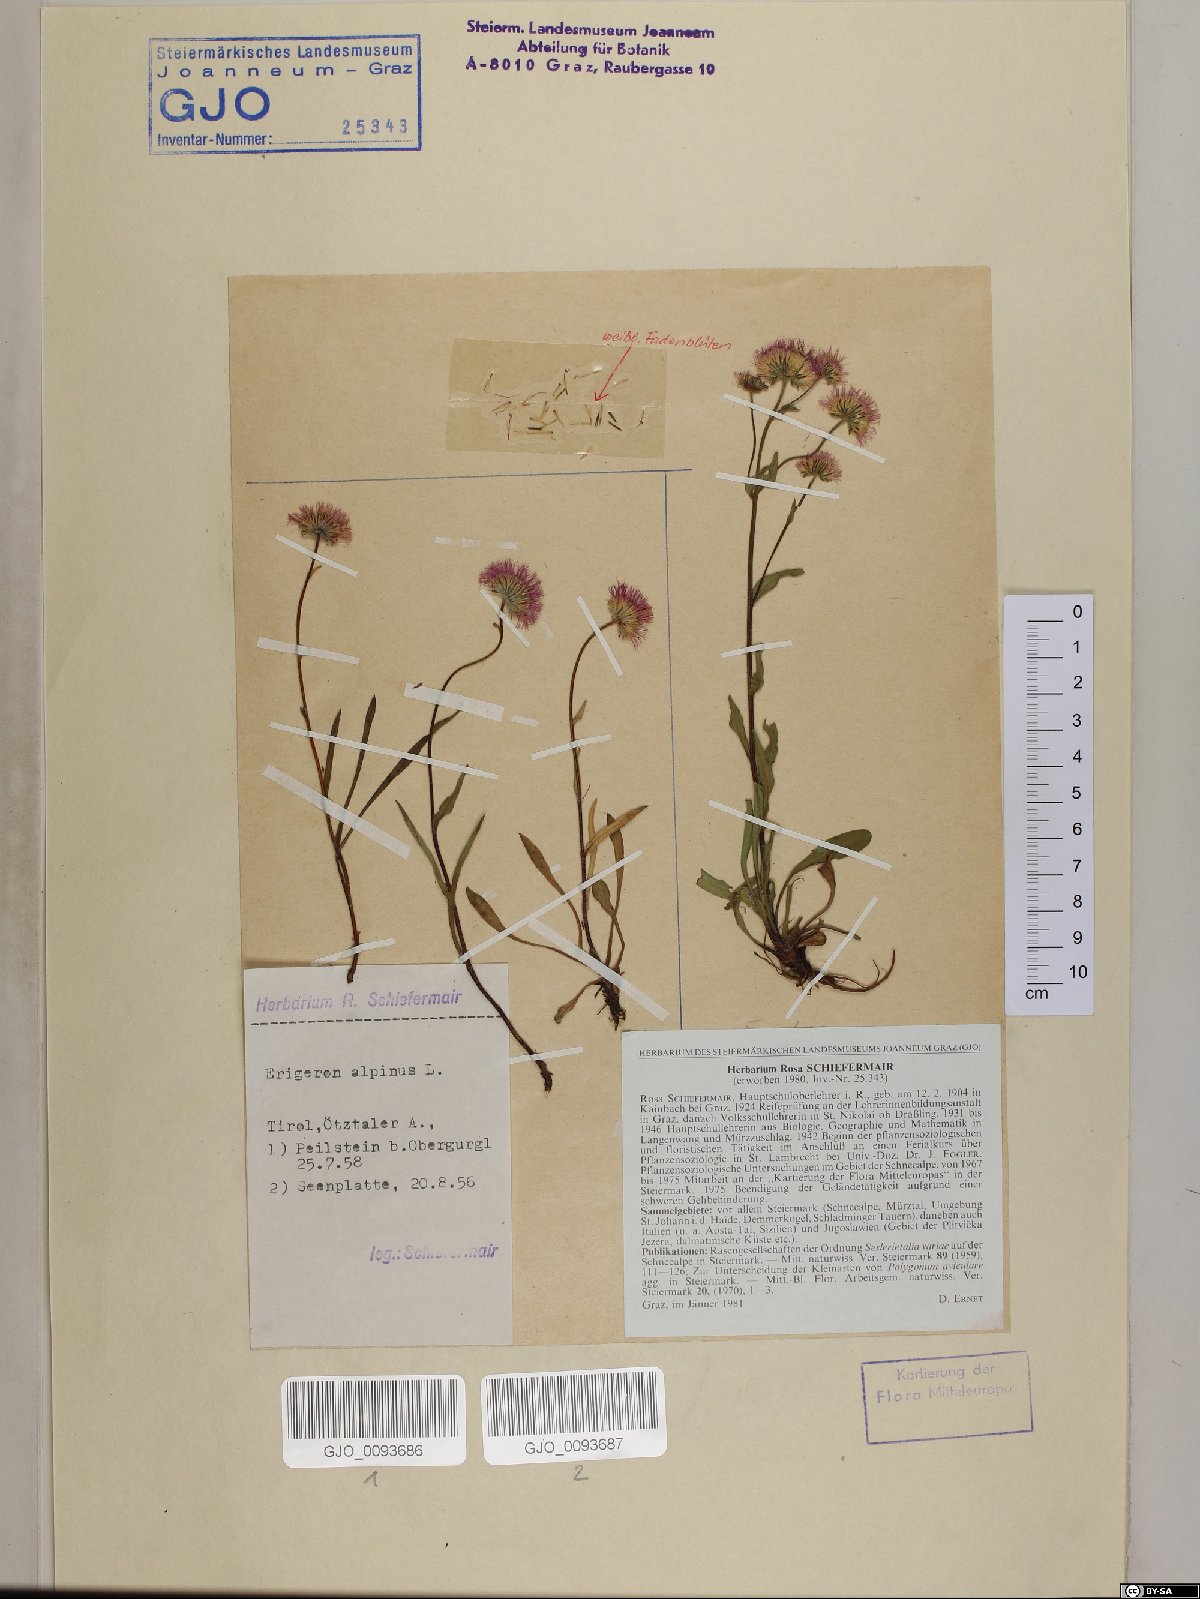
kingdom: Plantae
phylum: Tracheophyta
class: Magnoliopsida
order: Asterales
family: Asteraceae
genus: Erigeron
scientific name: Erigeron alpinus
